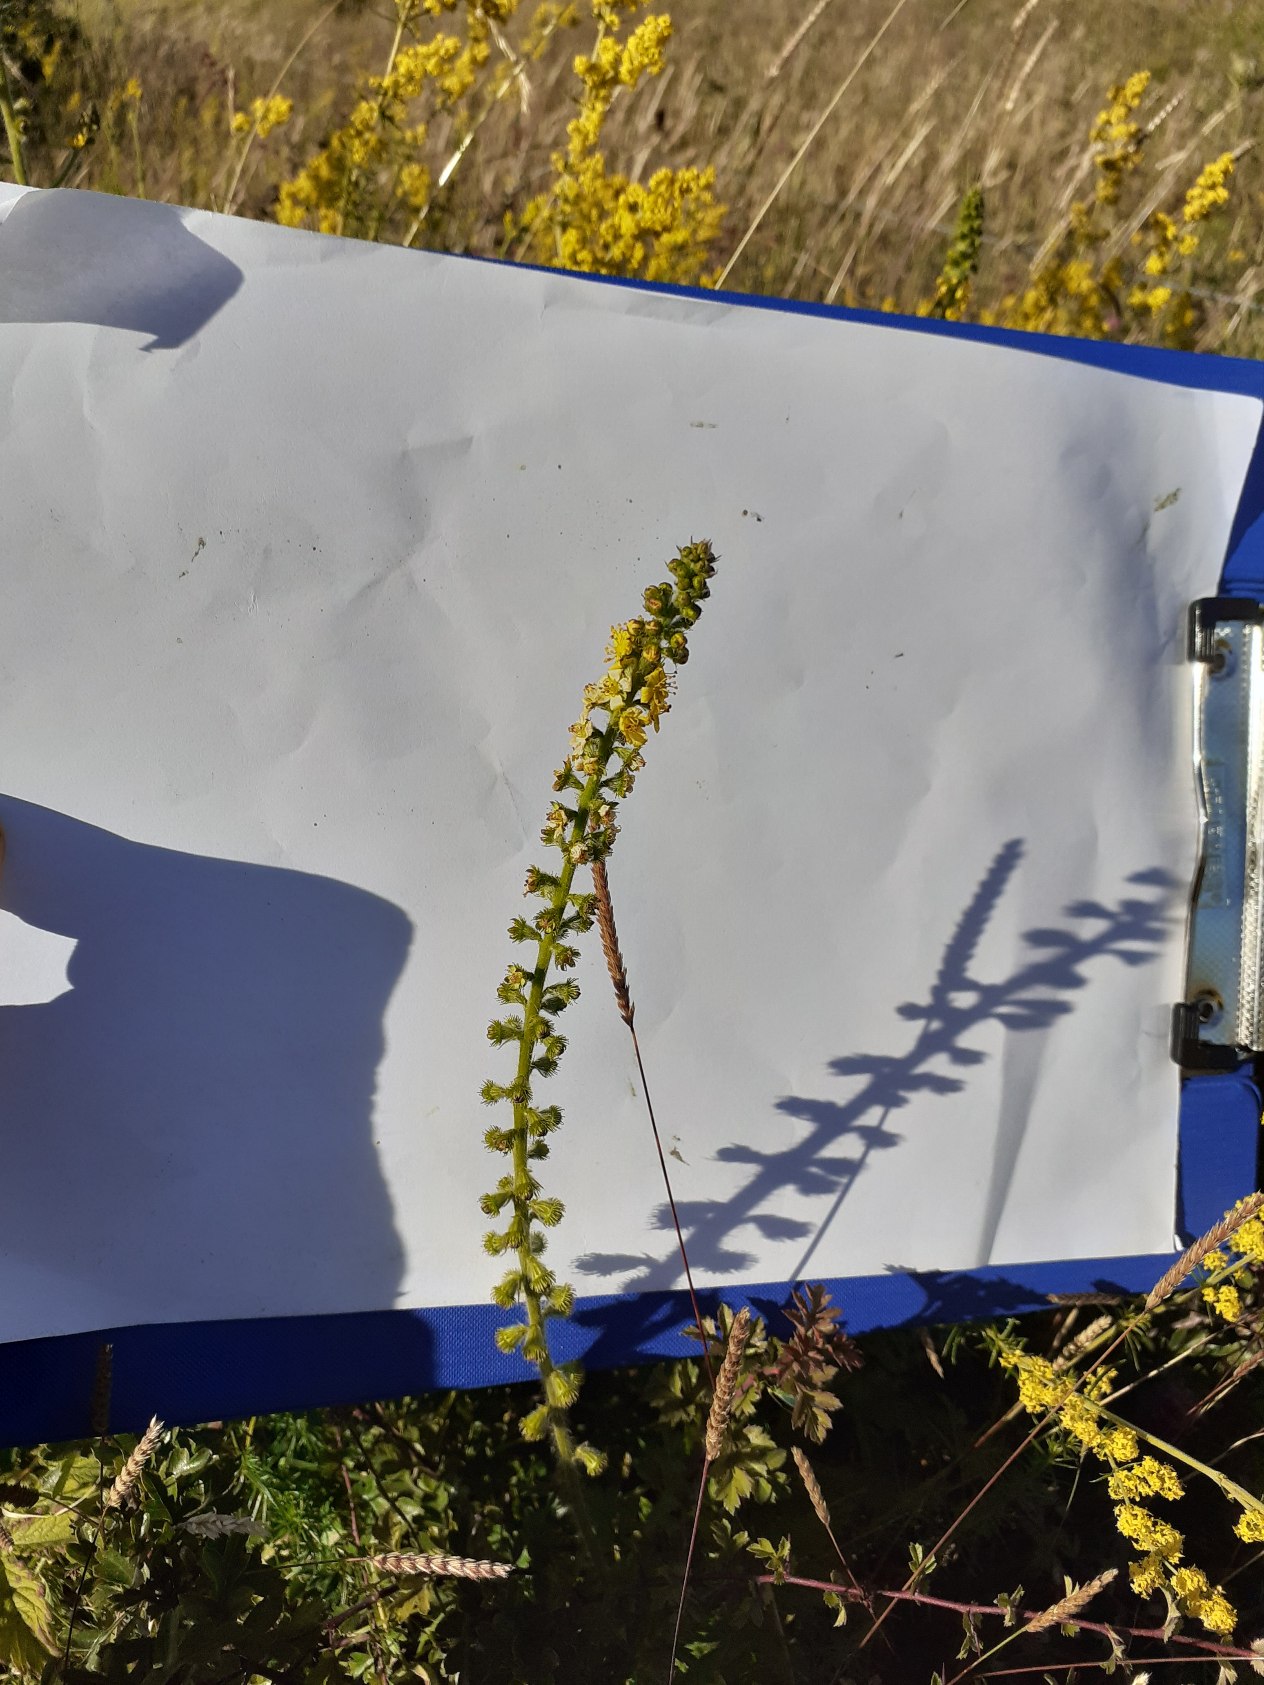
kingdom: Plantae
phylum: Tracheophyta
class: Magnoliopsida
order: Rosales
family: Rosaceae
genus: Agrimonia
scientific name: Agrimonia eupatoria
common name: Almindelig agermåne
